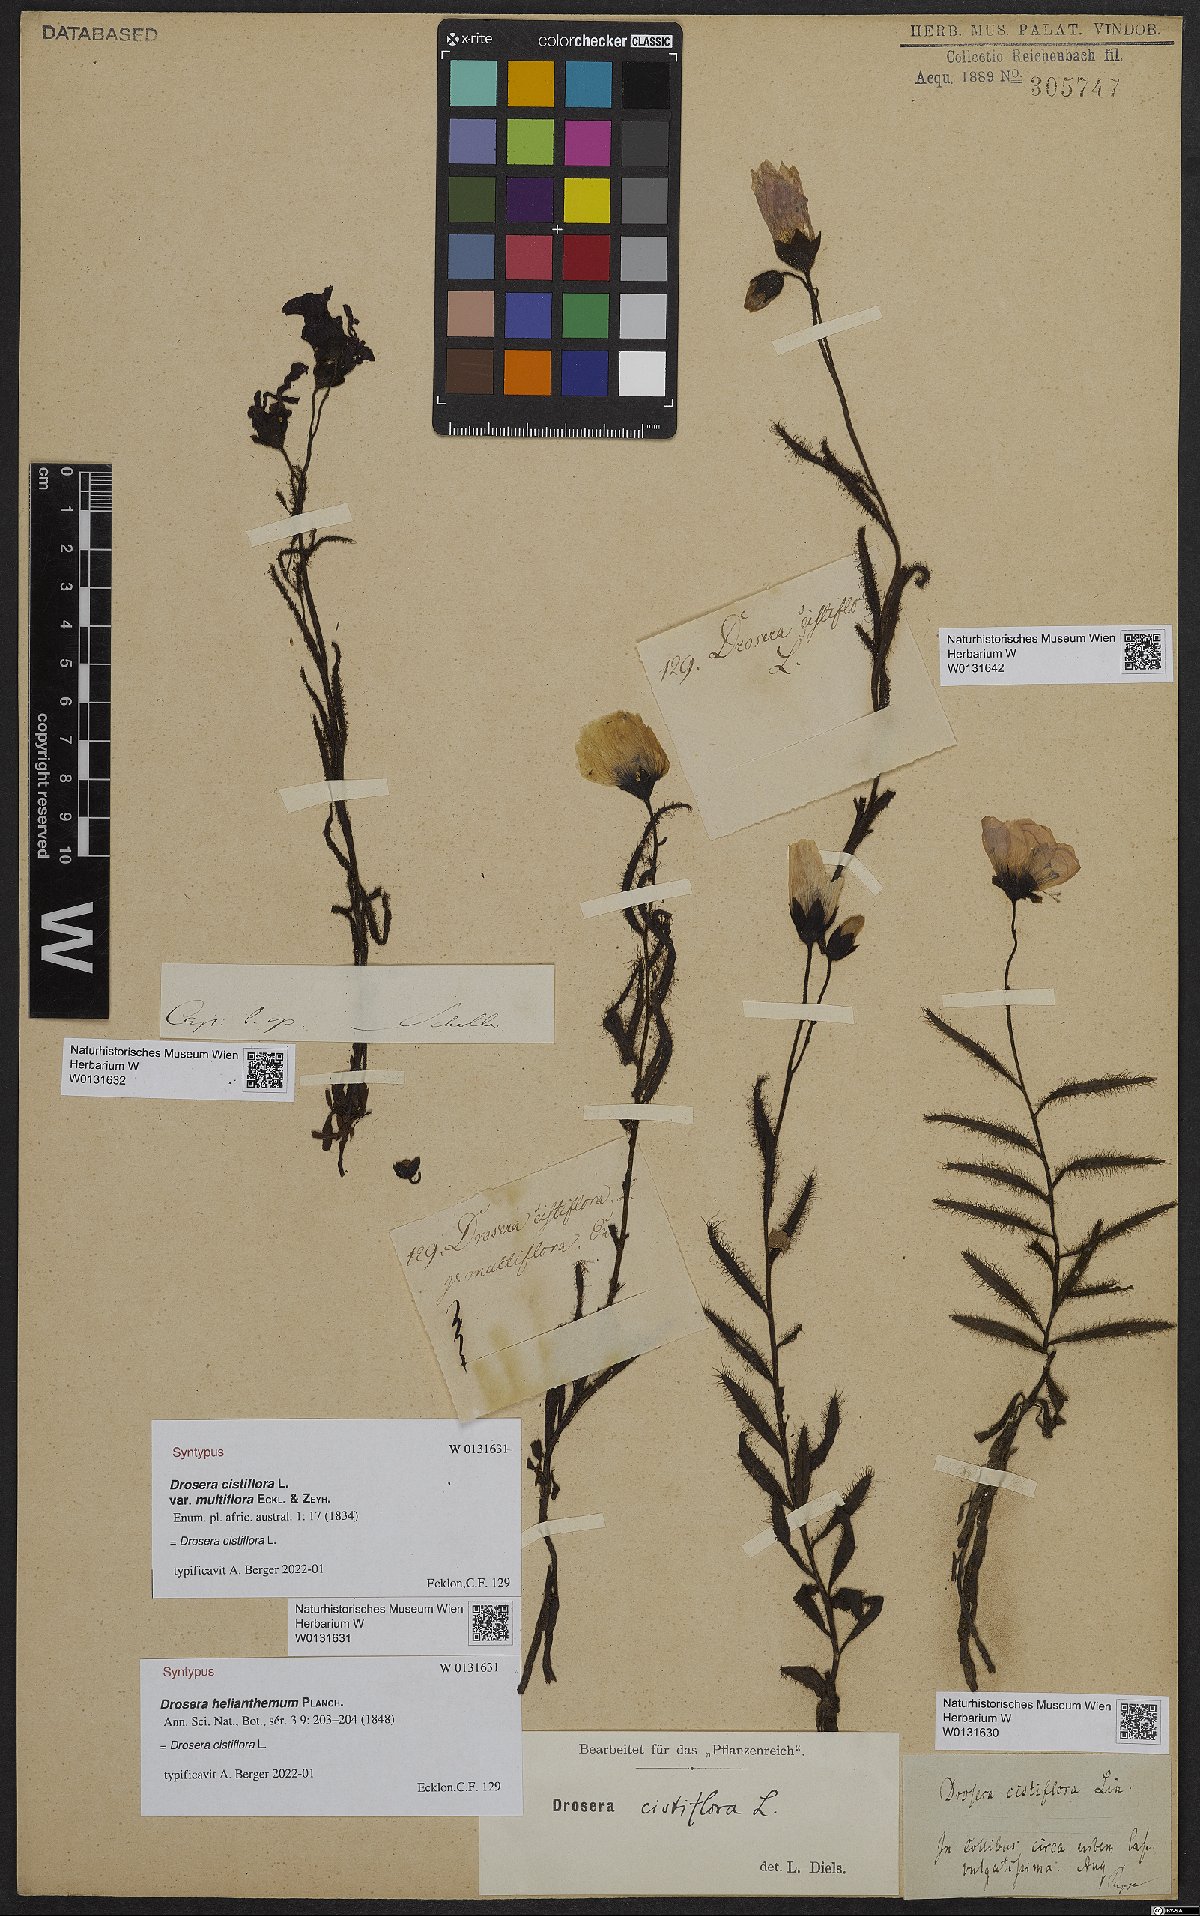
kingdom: Plantae
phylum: Tracheophyta
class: Magnoliopsida
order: Caryophyllales
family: Droseraceae
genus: Drosera
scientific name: Drosera cistiflora
